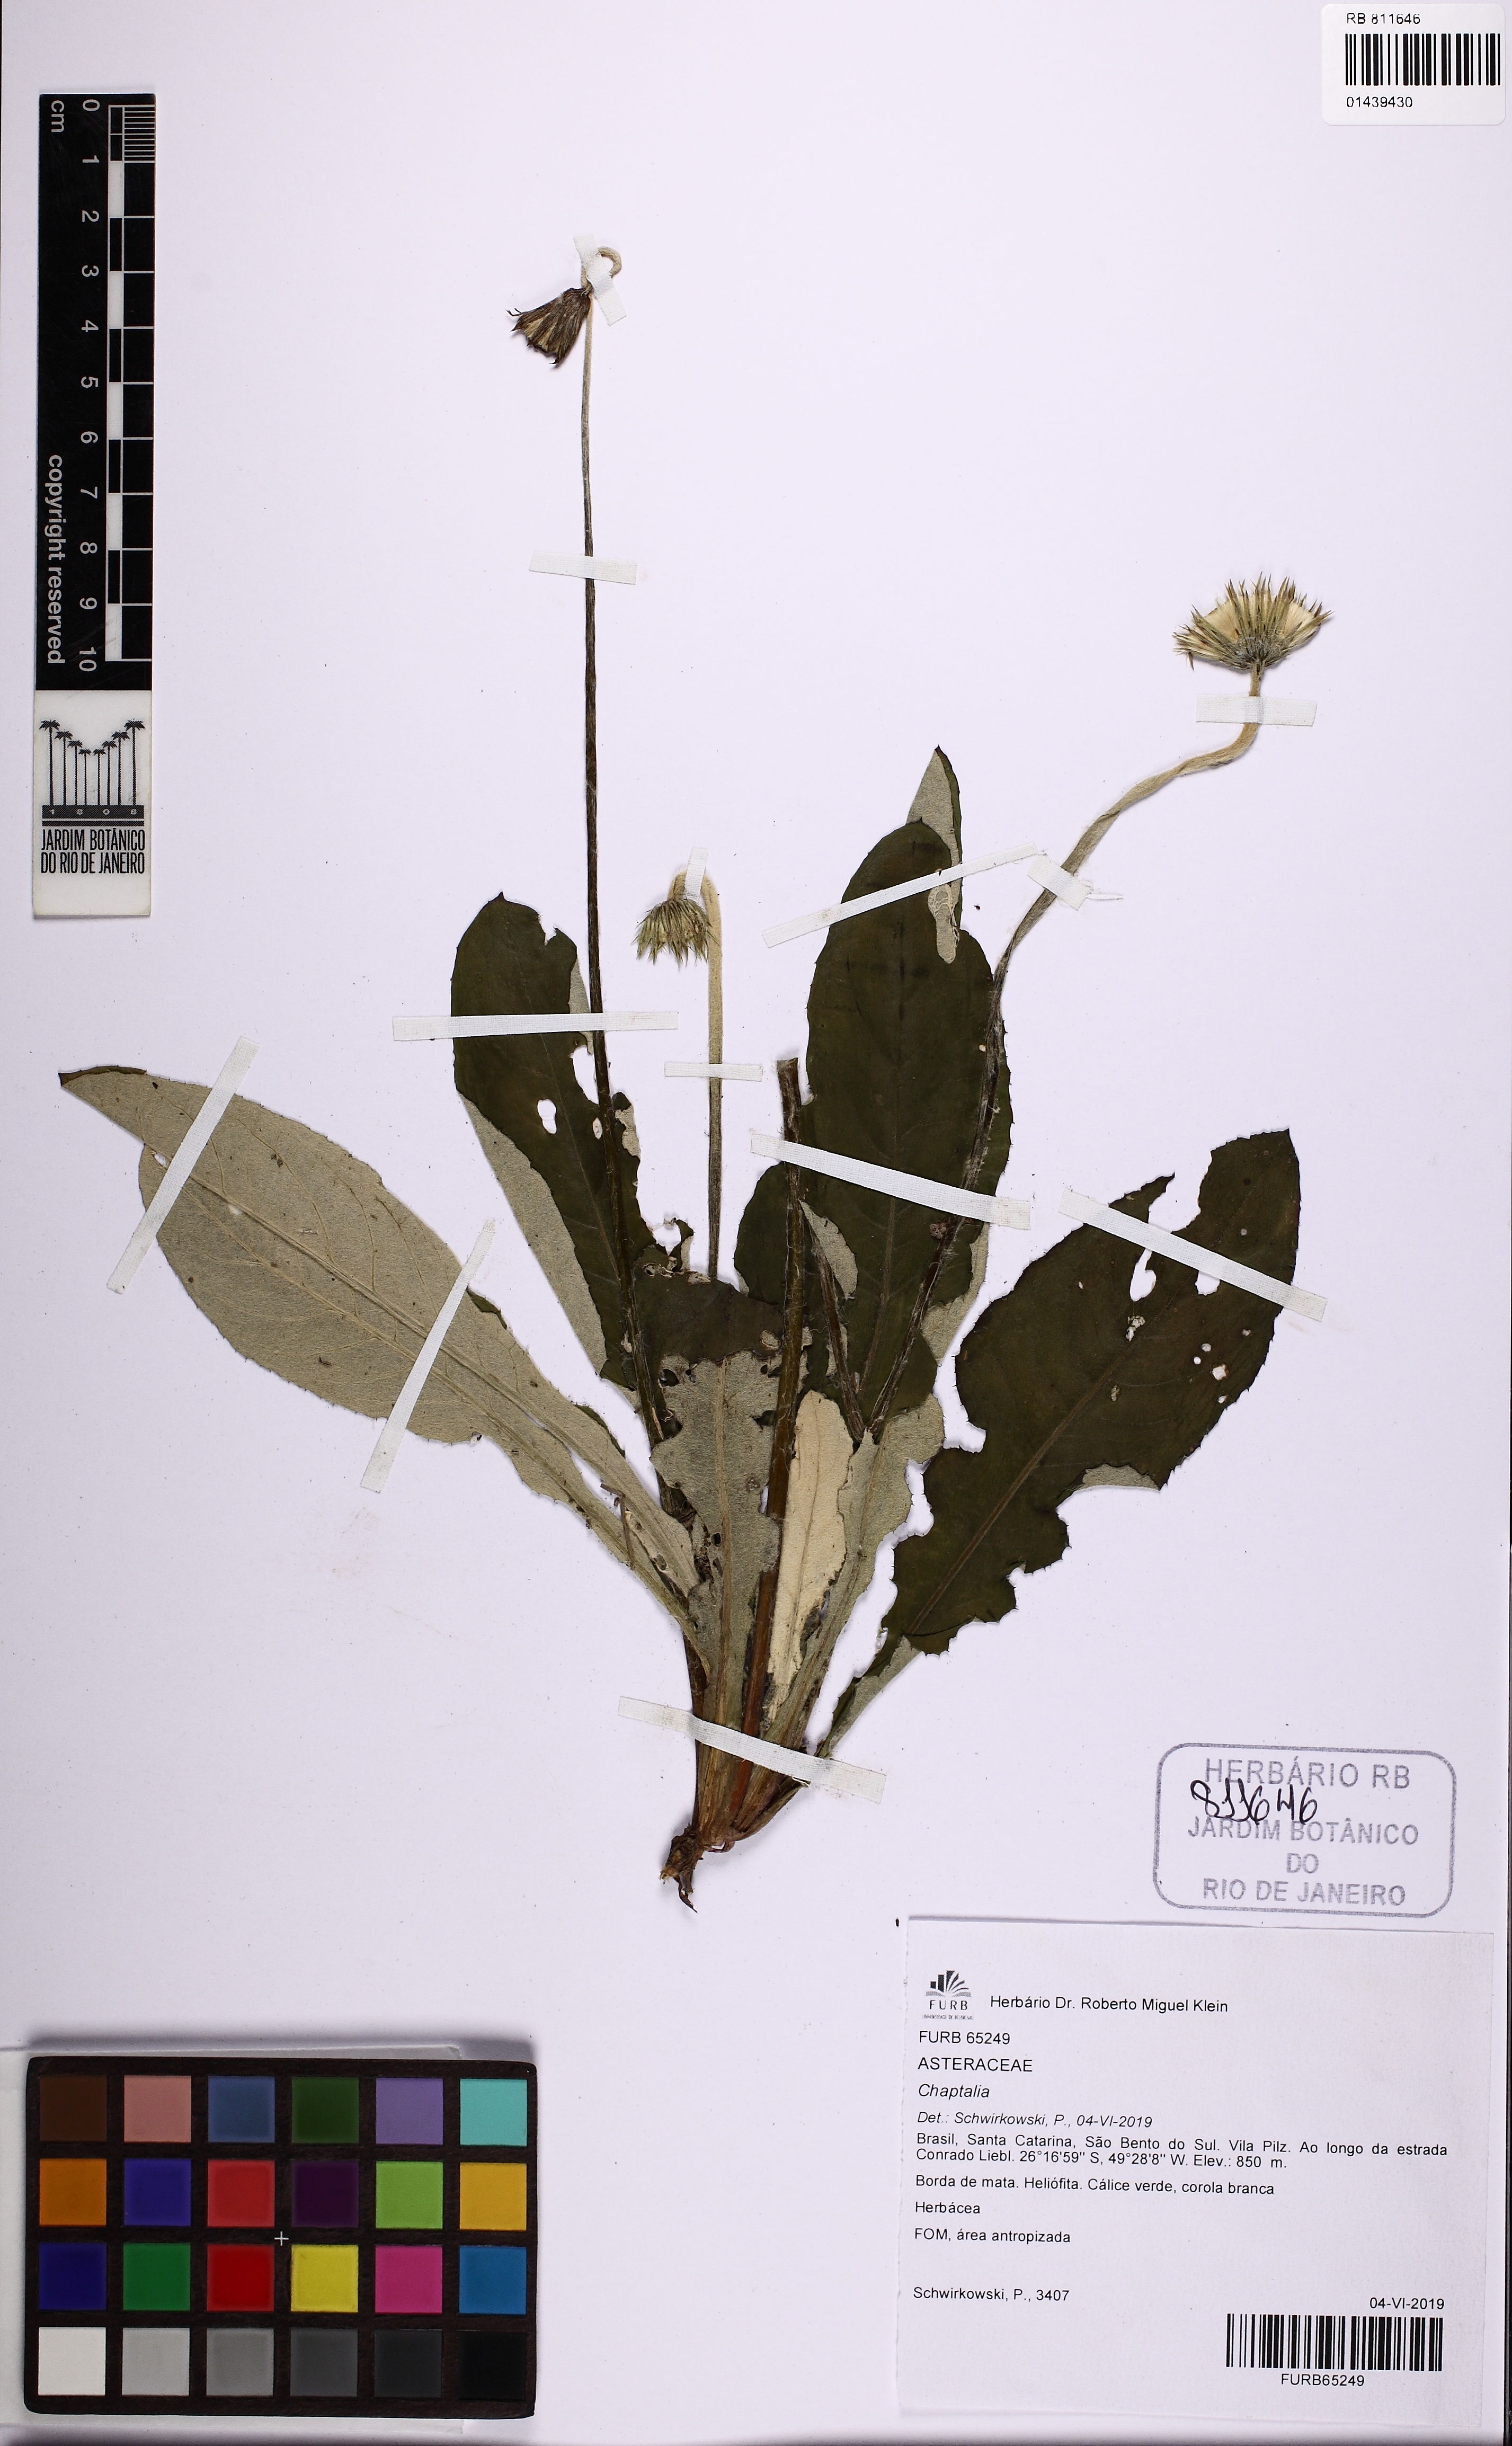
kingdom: Plantae
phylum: Tracheophyta
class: Magnoliopsida
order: Asterales
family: Asteraceae
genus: Chaptalia
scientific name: Chaptalia
